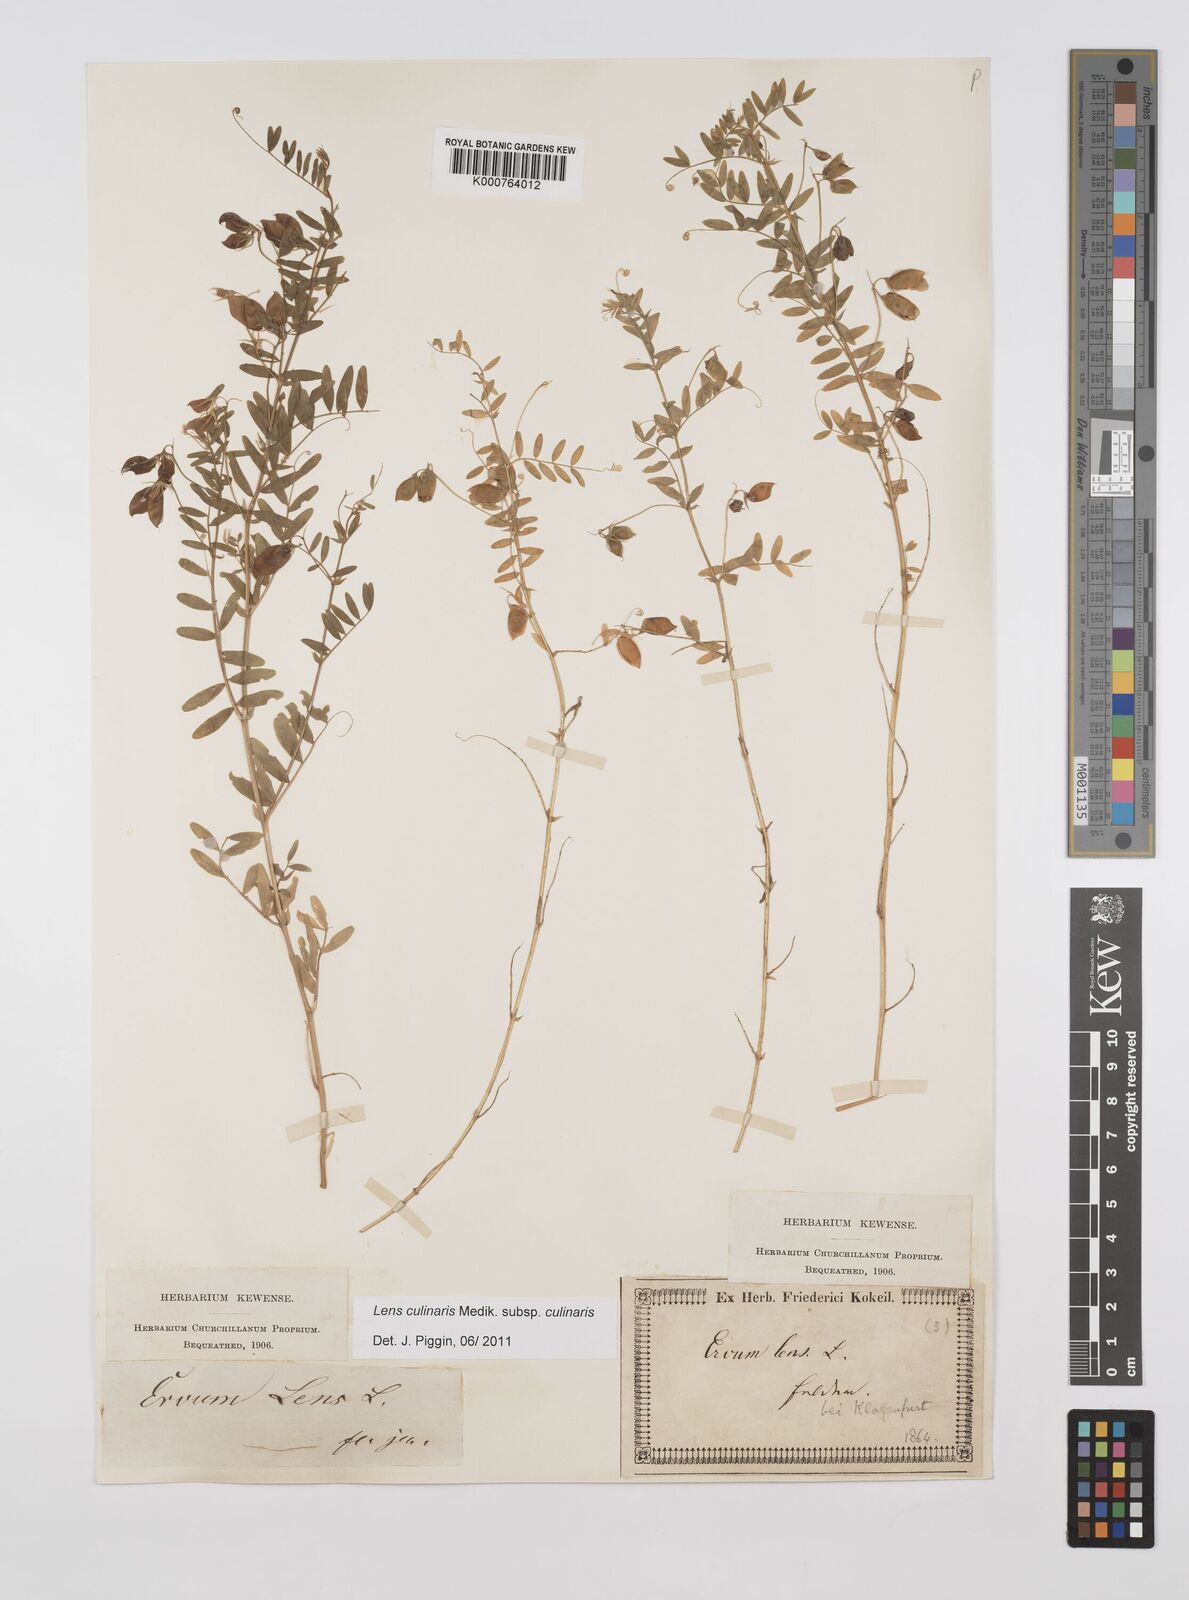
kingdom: Plantae
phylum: Tracheophyta
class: Magnoliopsida
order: Fabales
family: Fabaceae
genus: Vicia
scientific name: Vicia lens
